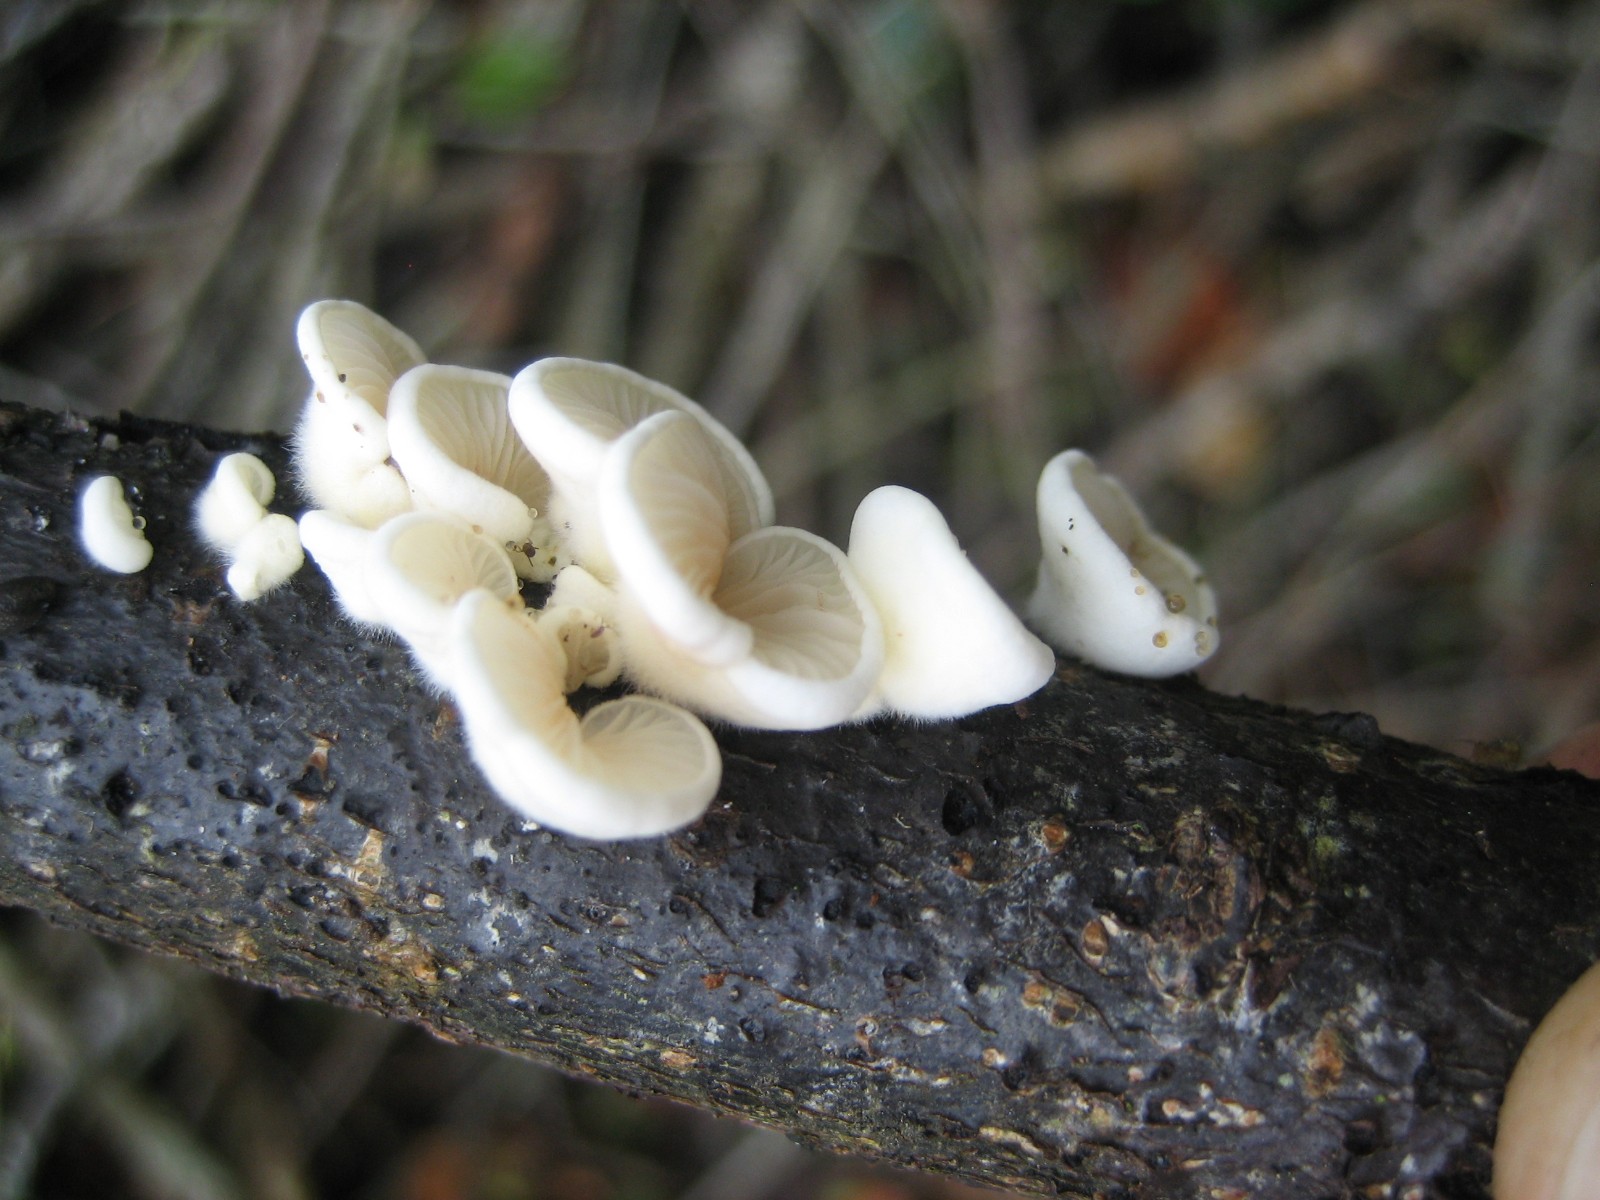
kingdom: Fungi
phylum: Basidiomycota
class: Agaricomycetes
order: Agaricales
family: Crepidotaceae
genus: Crepidotus
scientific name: Crepidotus
